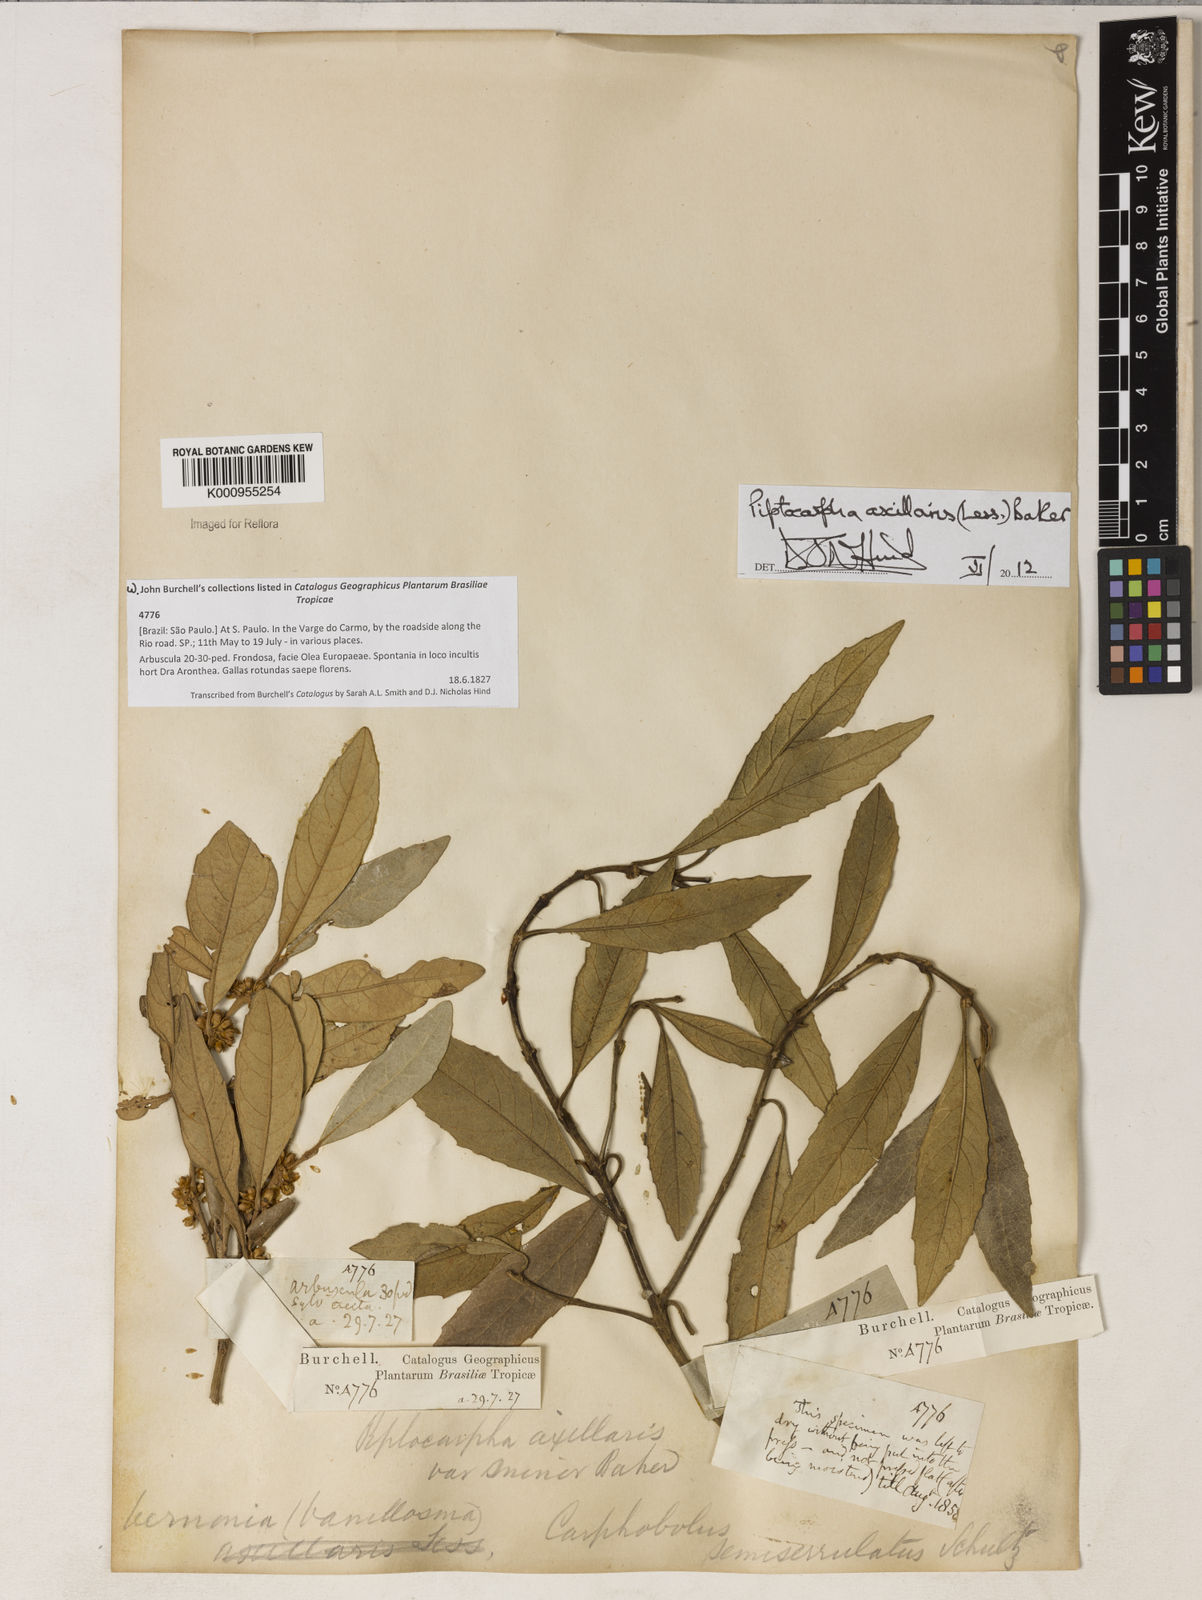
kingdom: Plantae
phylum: Tracheophyta
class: Magnoliopsida
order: Asterales
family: Asteraceae
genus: Piptocarpha
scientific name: Piptocarpha axillaris
